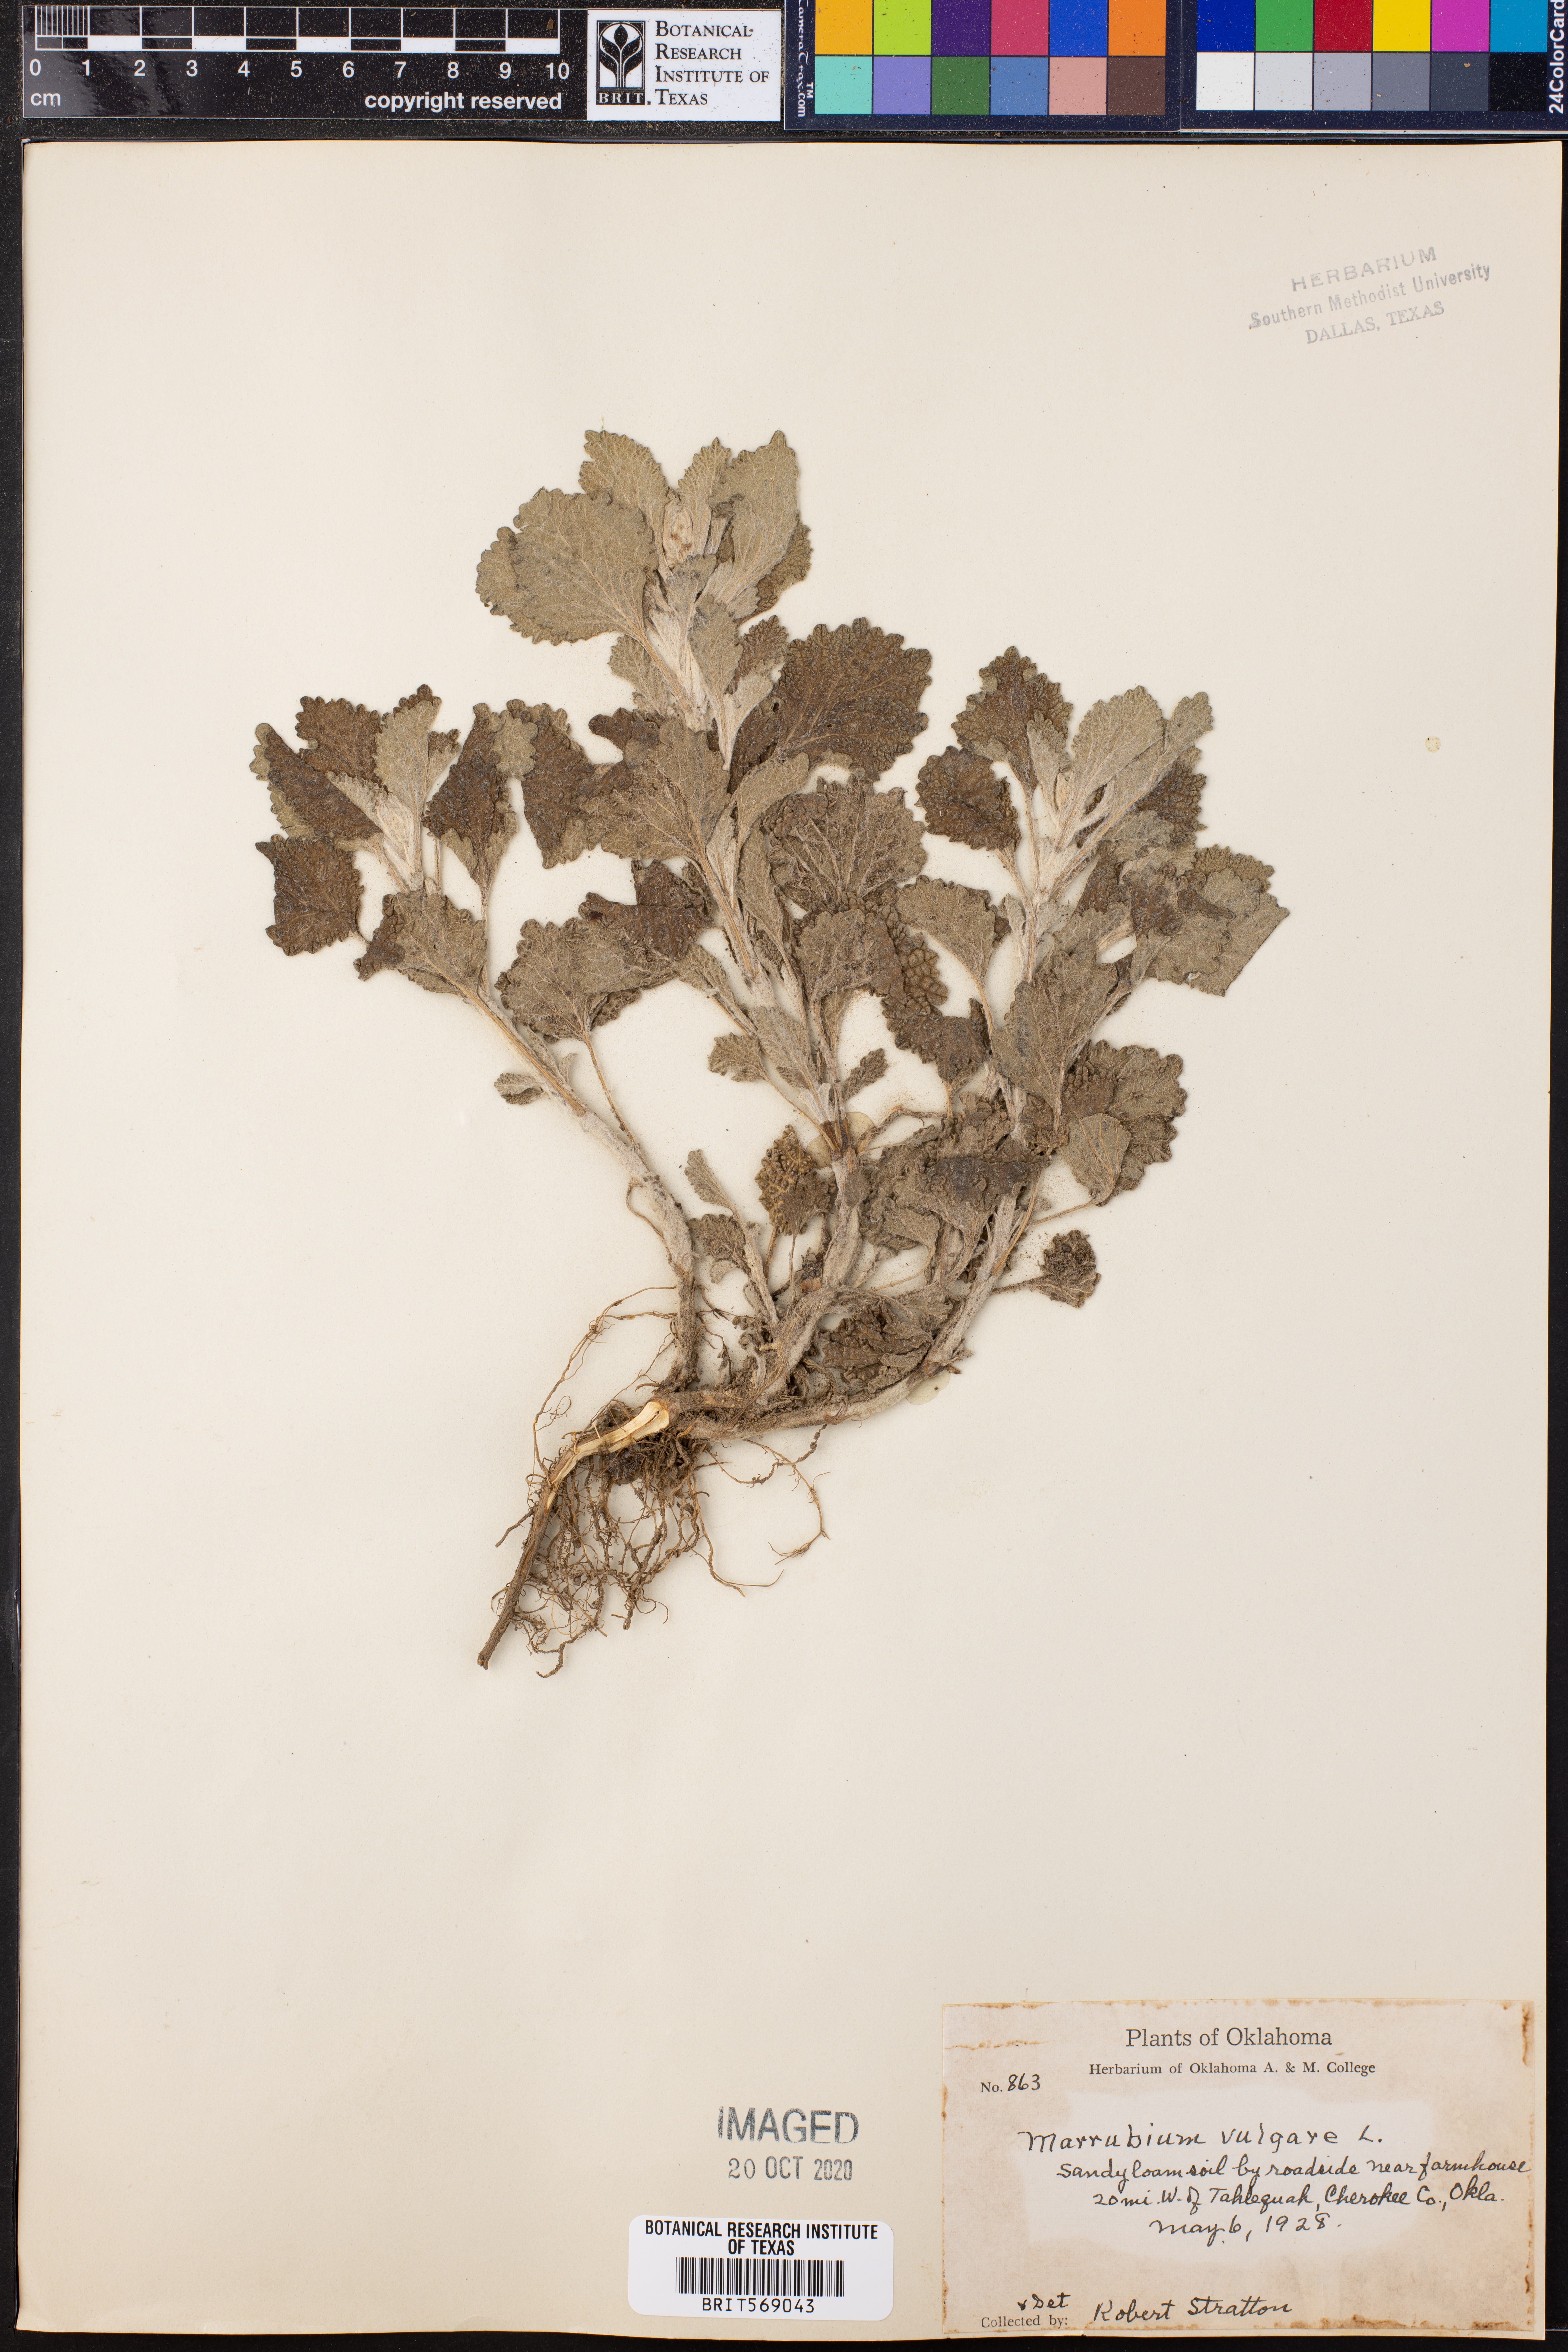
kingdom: Plantae
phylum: Tracheophyta
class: Magnoliopsida
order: Lamiales
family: Lamiaceae
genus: Marrubium
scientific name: Marrubium vulgare
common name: Horehound
